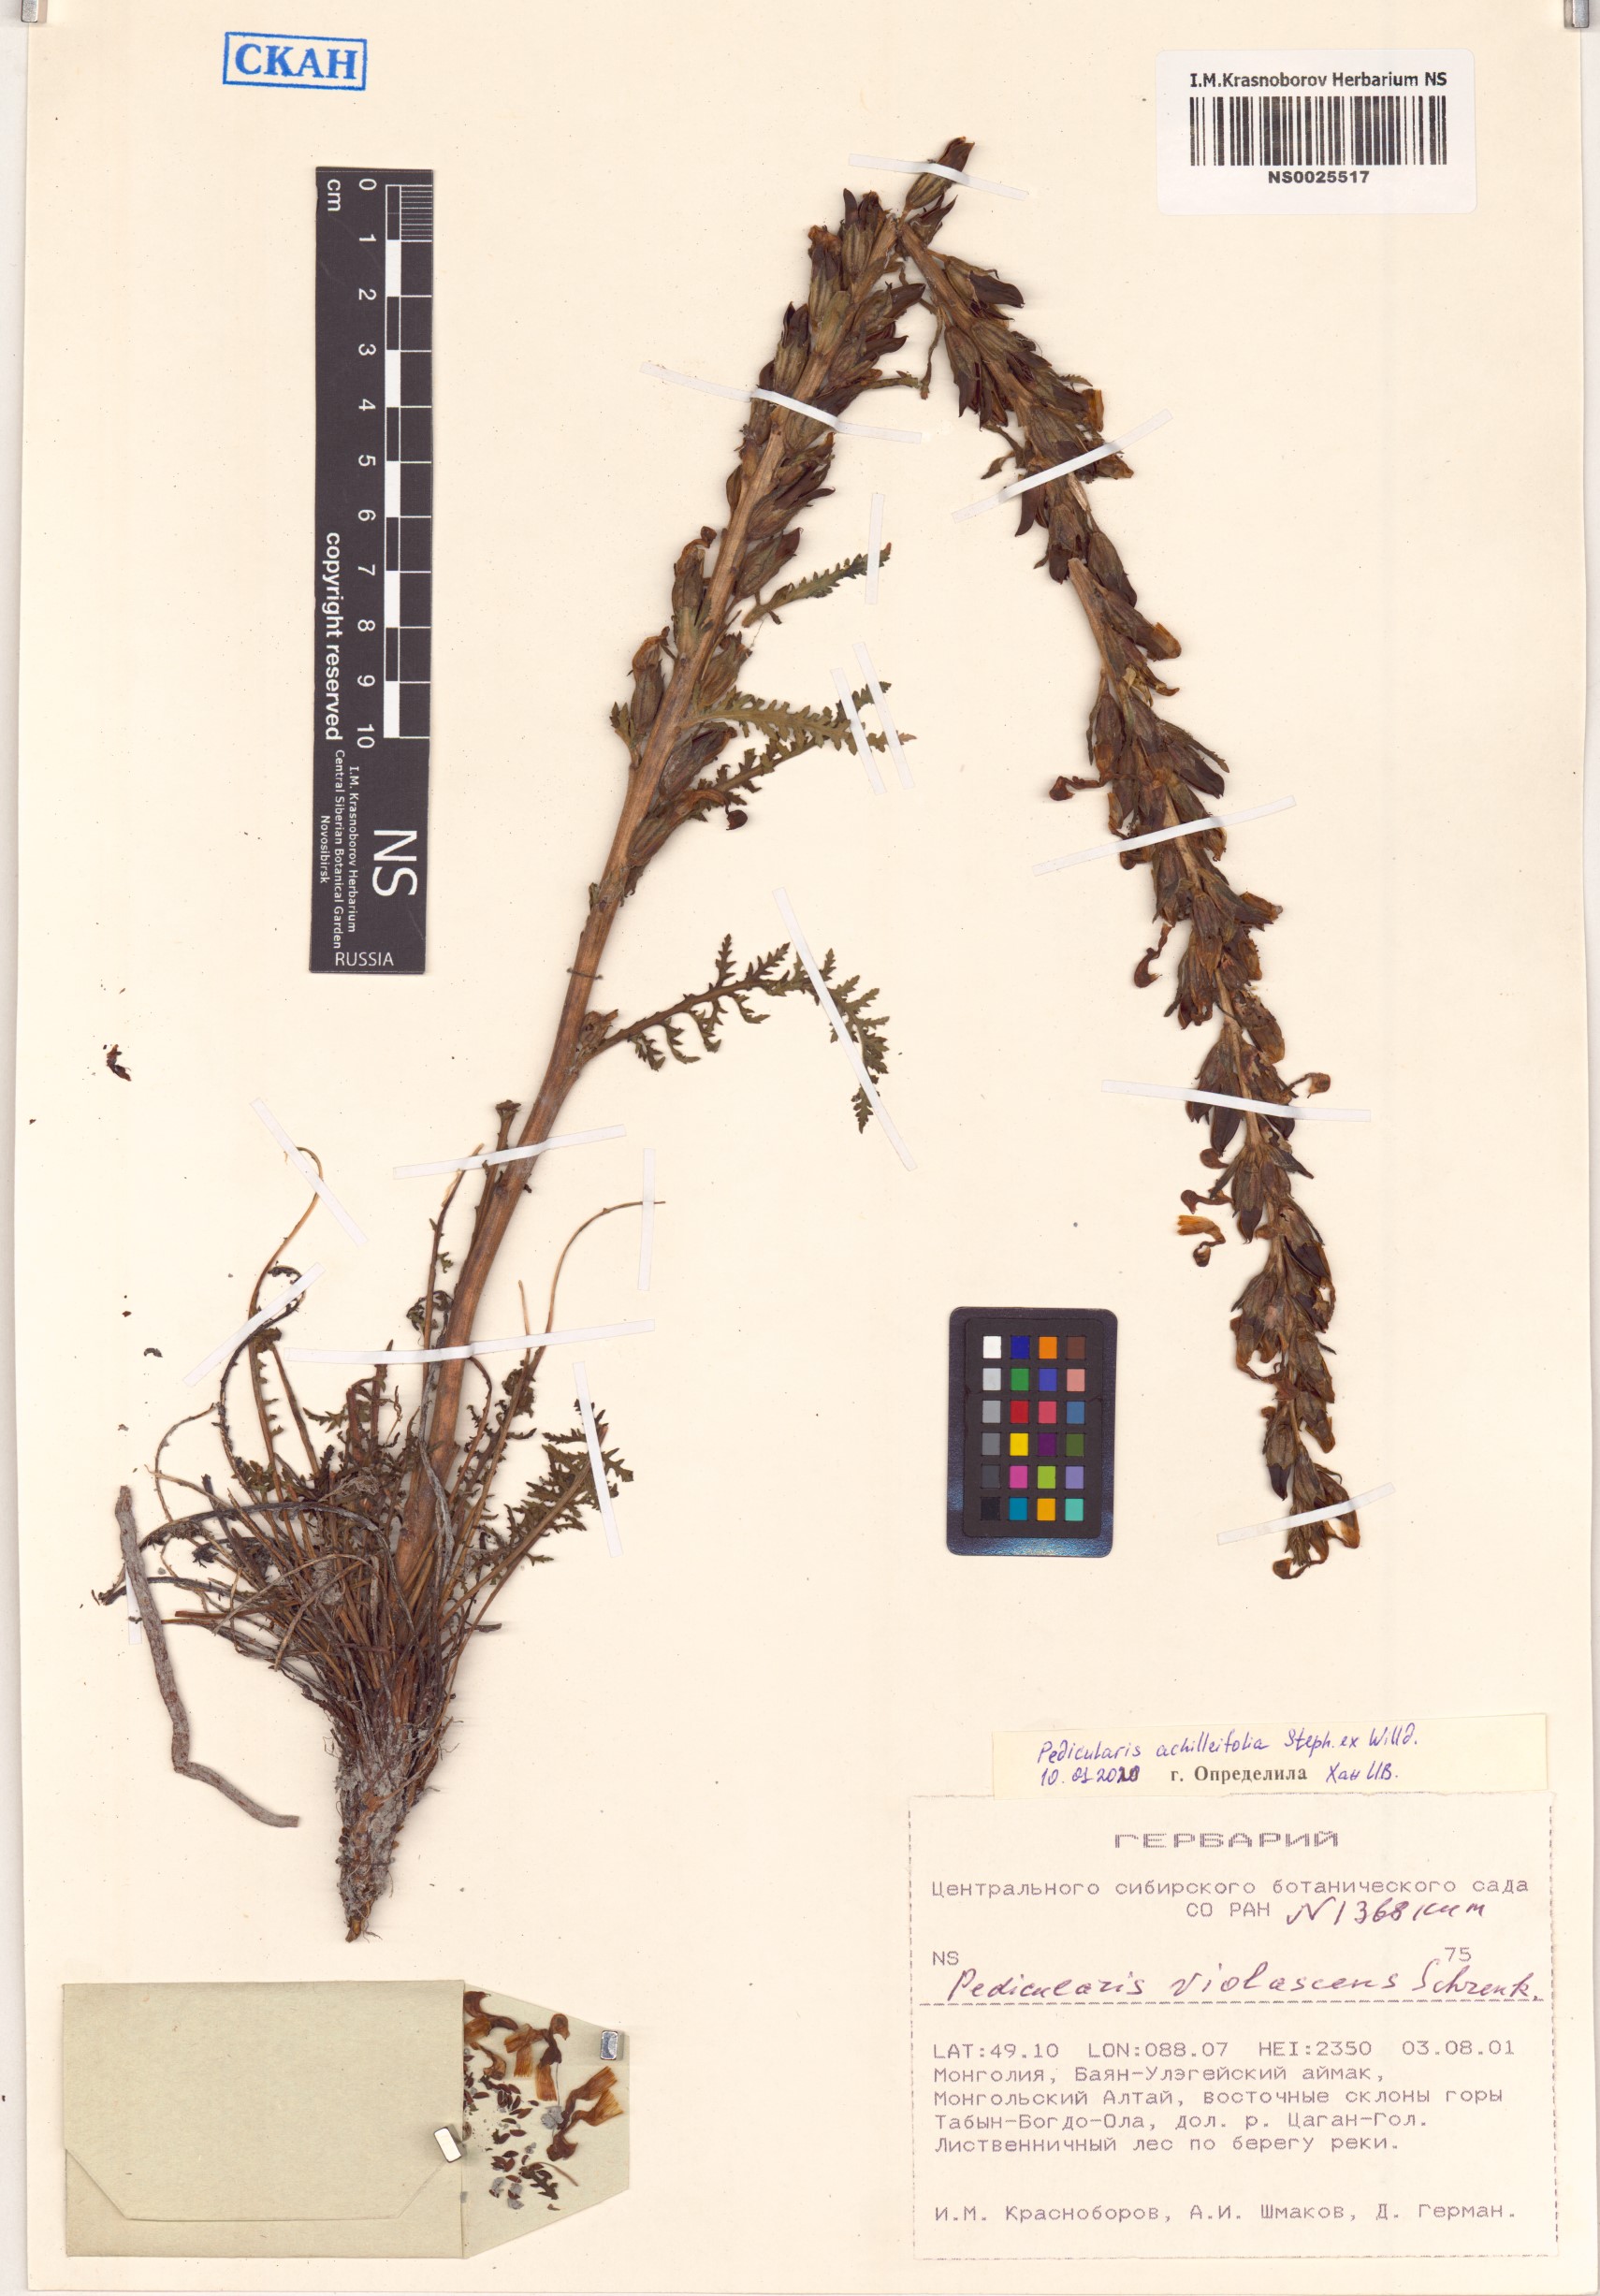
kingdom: Plantae
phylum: Tracheophyta
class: Magnoliopsida
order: Lamiales
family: Orobanchaceae
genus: Pedicularis
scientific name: Pedicularis achilleifolia
